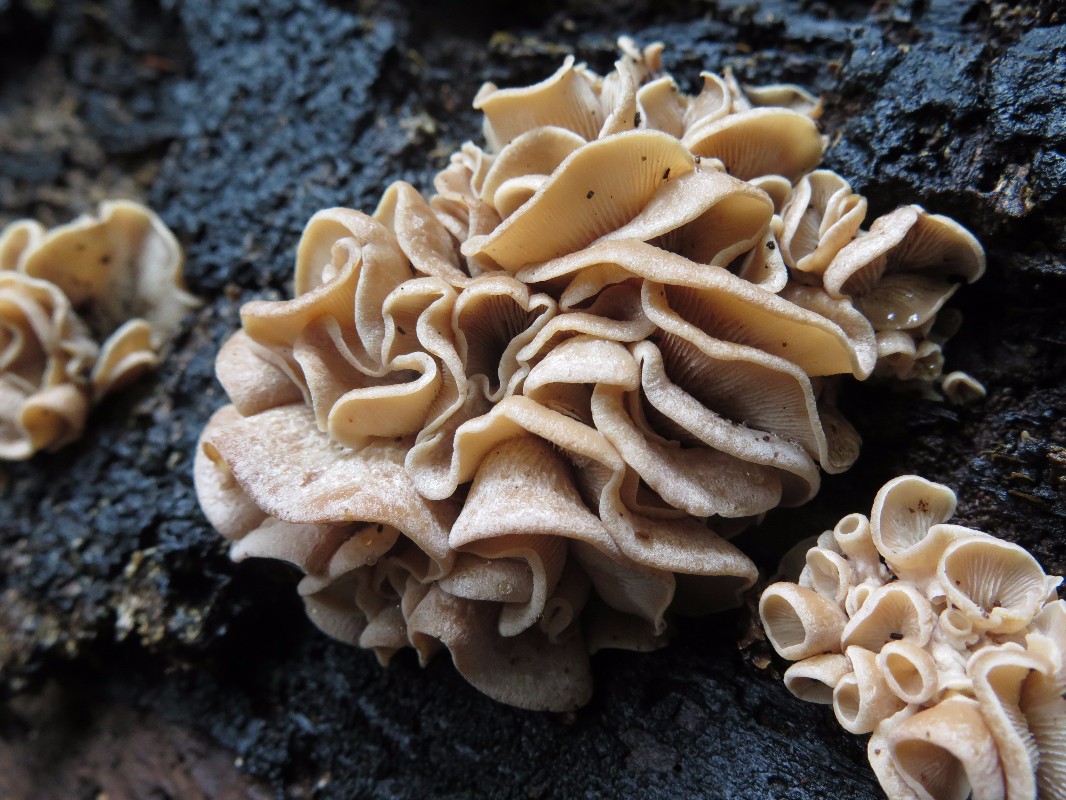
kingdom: Fungi
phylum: Basidiomycota
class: Agaricomycetes
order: Russulales
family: Auriscalpiaceae
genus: Lentinellus
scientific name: Lentinellus ursinus
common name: børstehåret savbladhat
